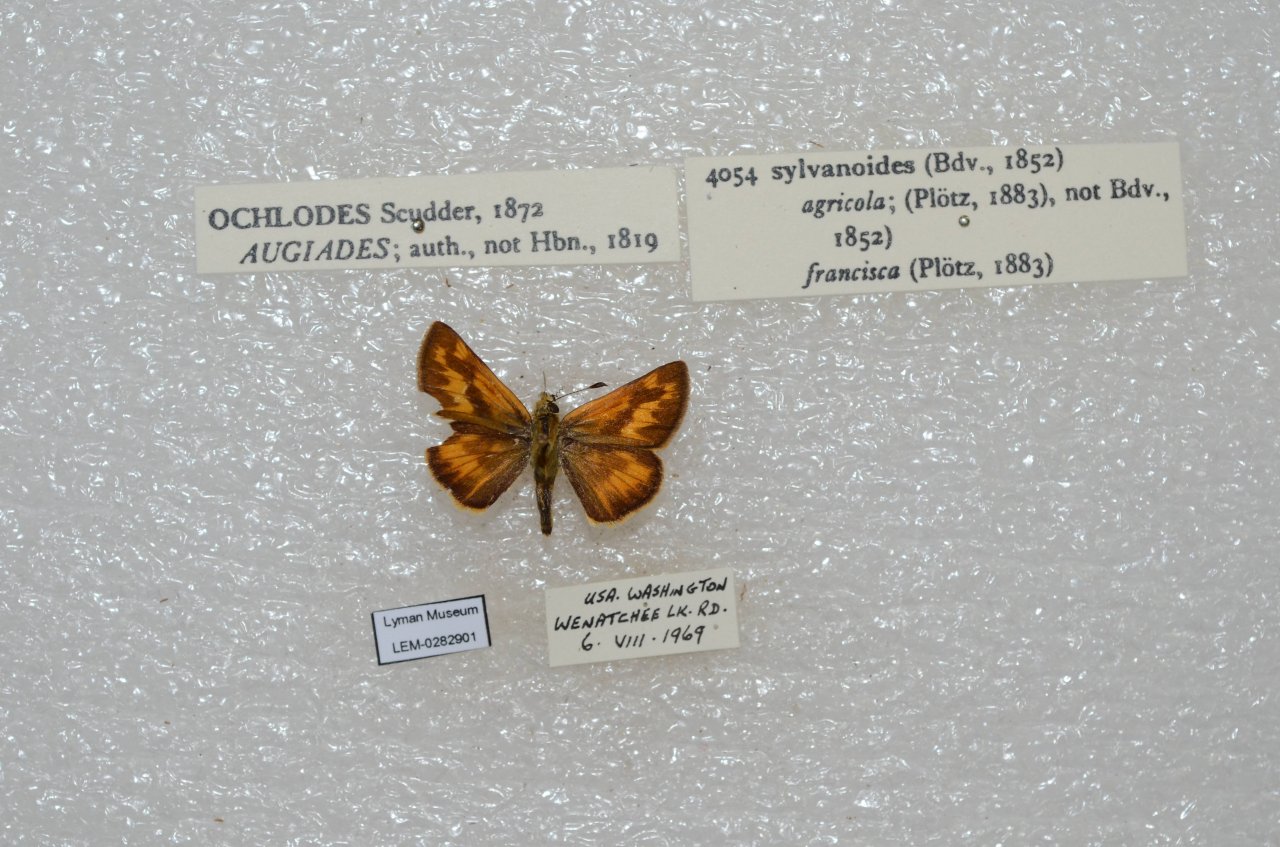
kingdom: Animalia
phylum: Arthropoda
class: Insecta
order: Lepidoptera
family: Hesperiidae
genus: Ochlodes
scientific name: Ochlodes sylvanoides
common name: Woodland Skipper
